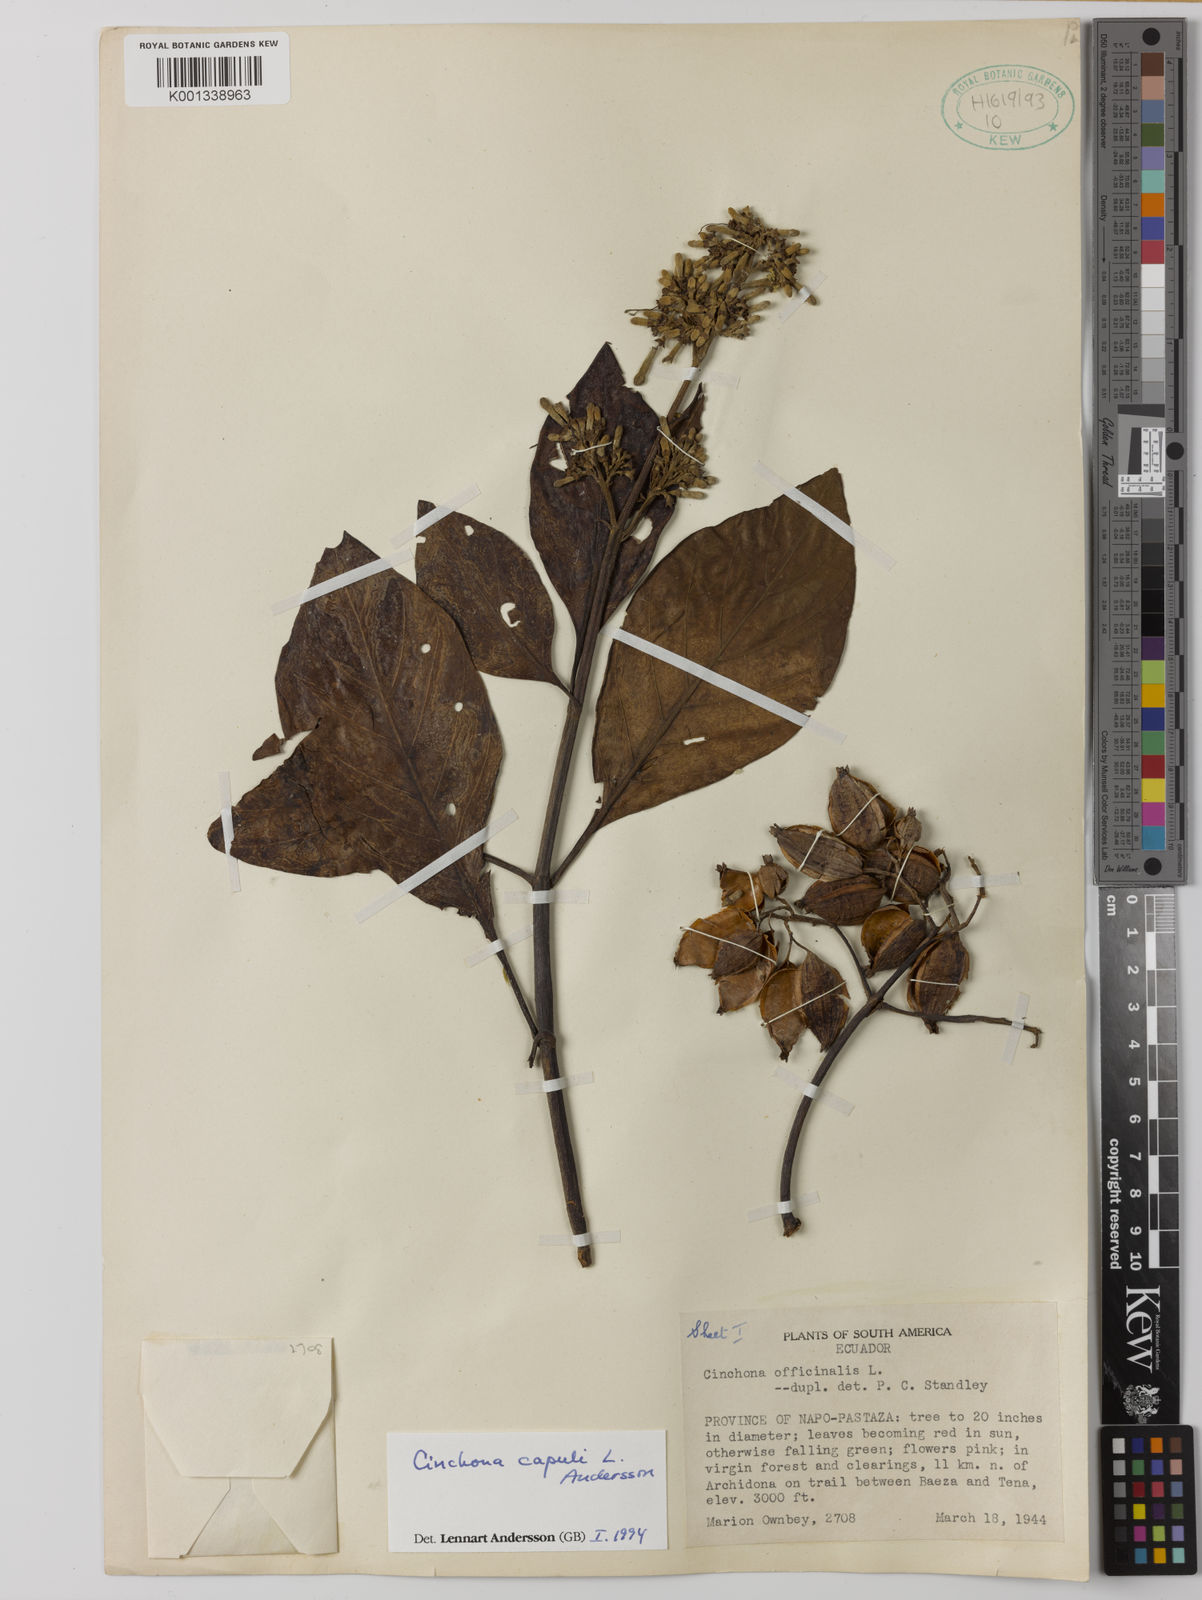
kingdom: Plantae
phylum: Tracheophyta
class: Magnoliopsida
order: Gentianales
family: Rubiaceae
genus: Cinchona
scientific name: Cinchona capuli
